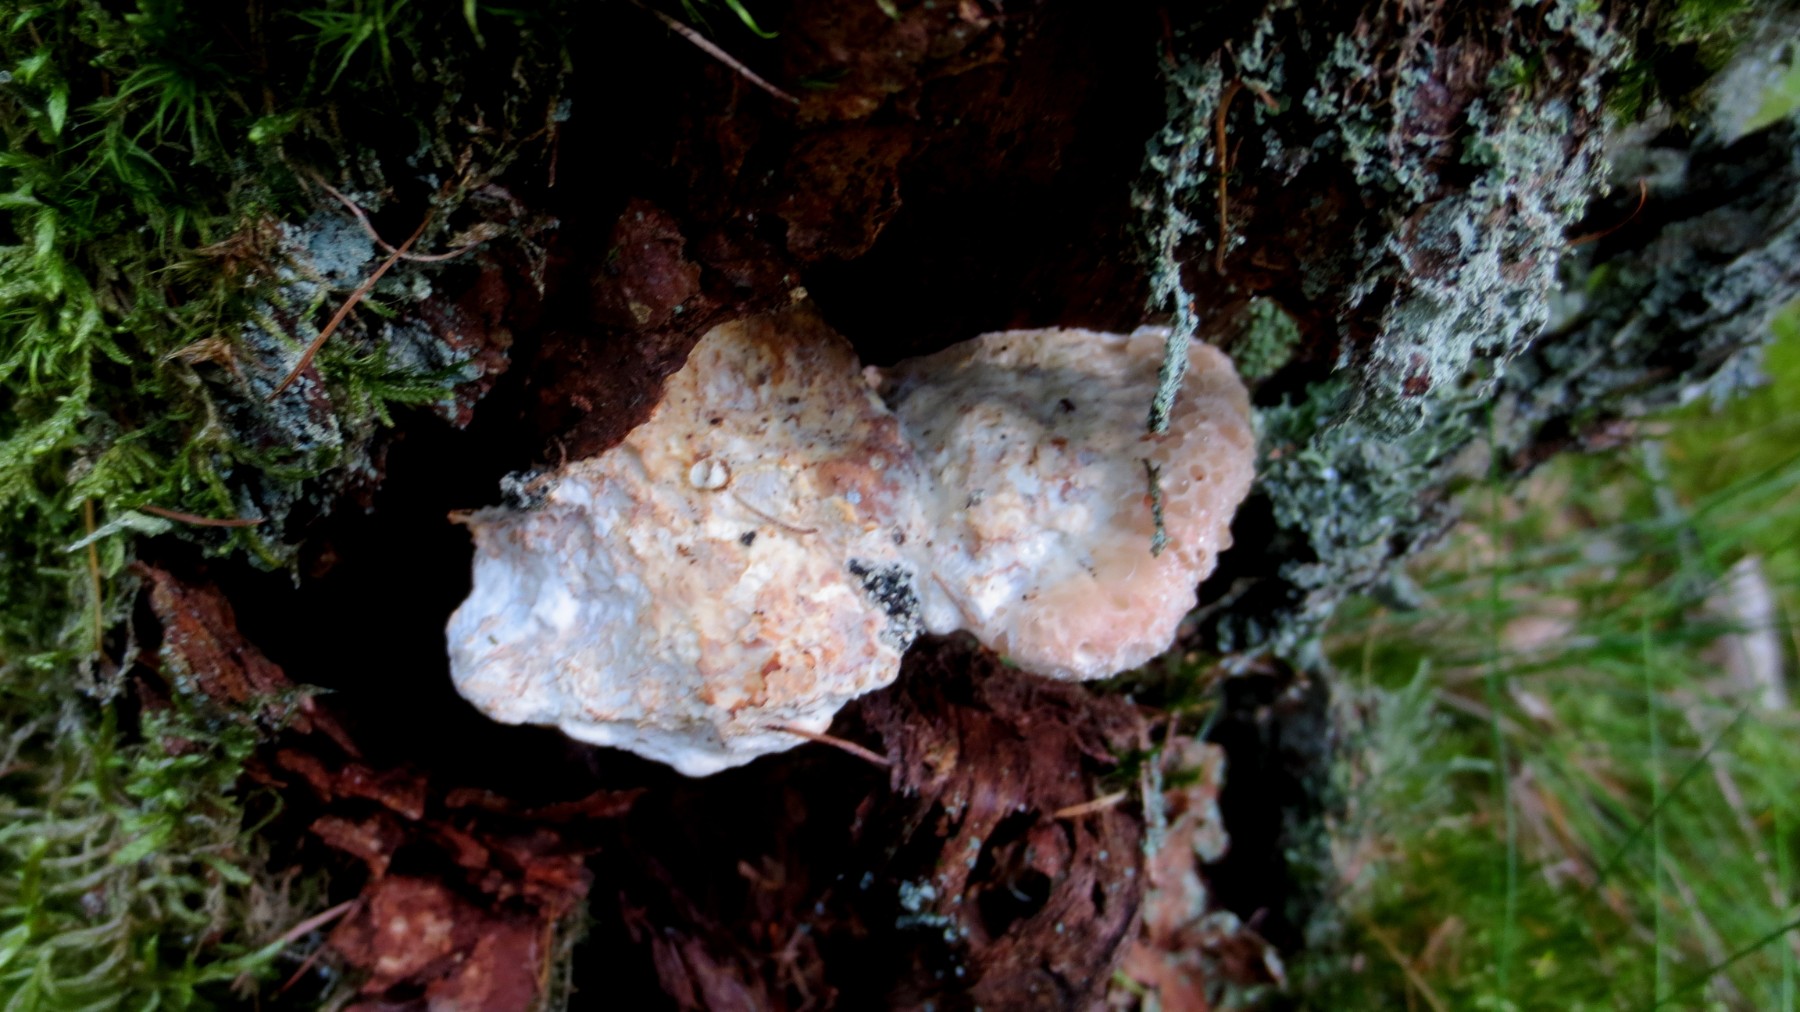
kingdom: Fungi
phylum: Basidiomycota
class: Agaricomycetes
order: Polyporales
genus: Calcipostia
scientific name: Calcipostia guttulata
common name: dråbe-kødporesvamp
